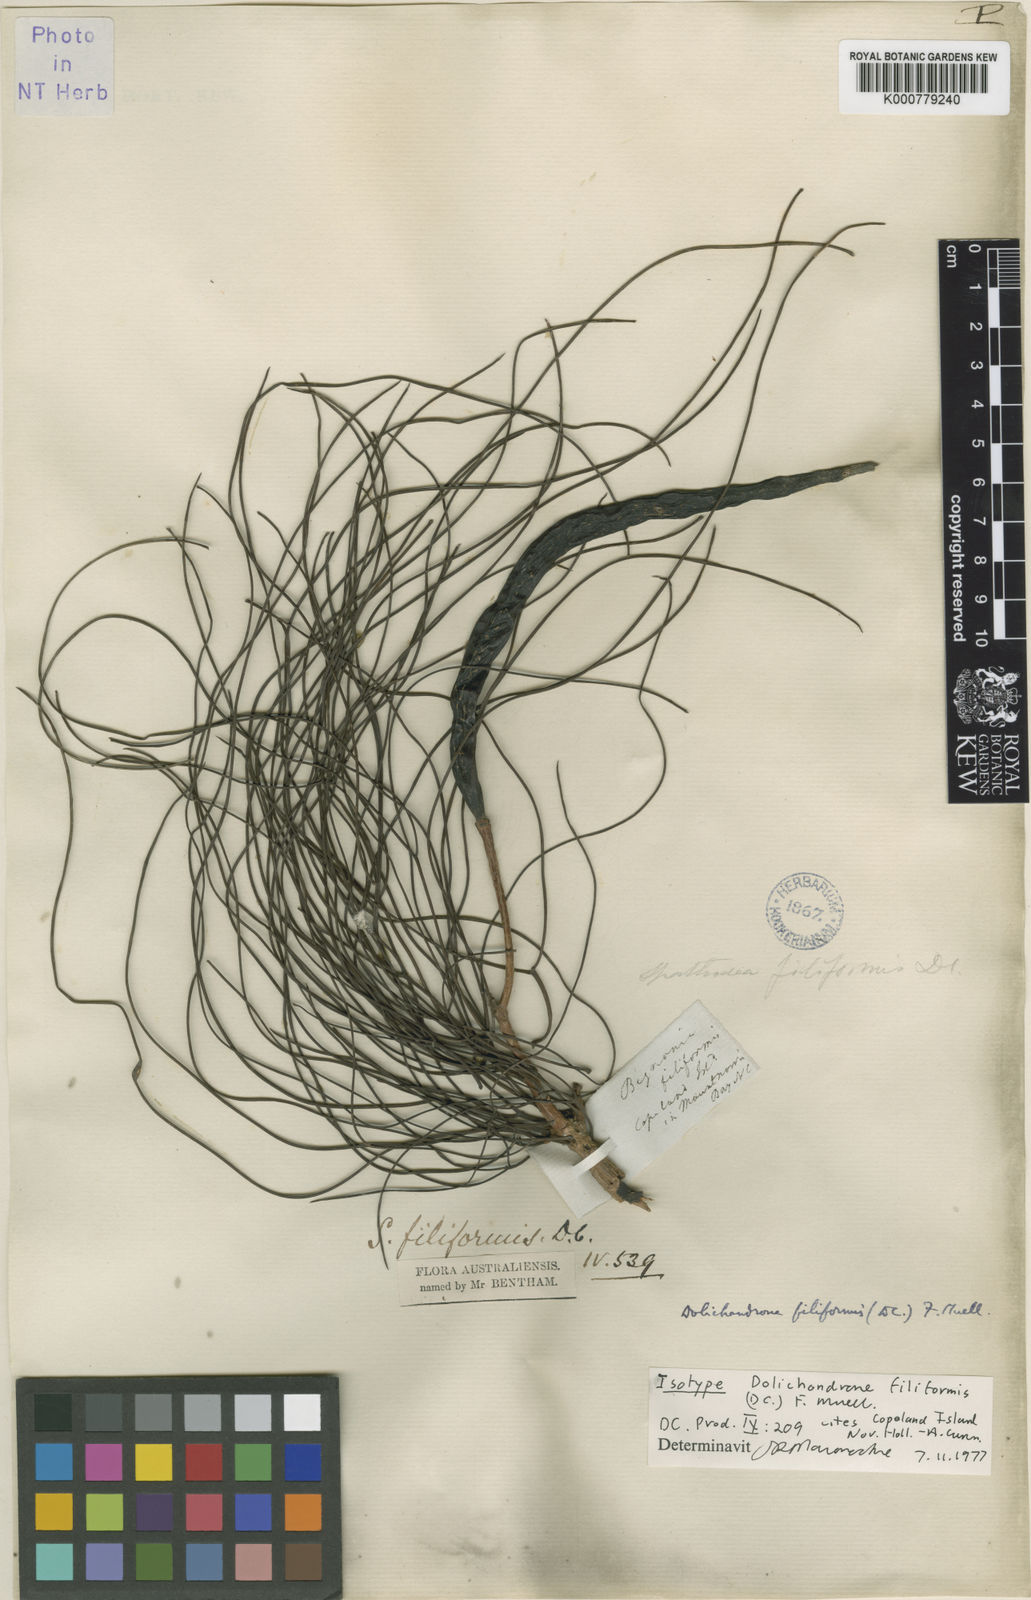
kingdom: Plantae
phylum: Tracheophyta
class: Magnoliopsida
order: Lamiales
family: Bignoniaceae
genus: Dolichandrone
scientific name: Dolichandrone filiformis
